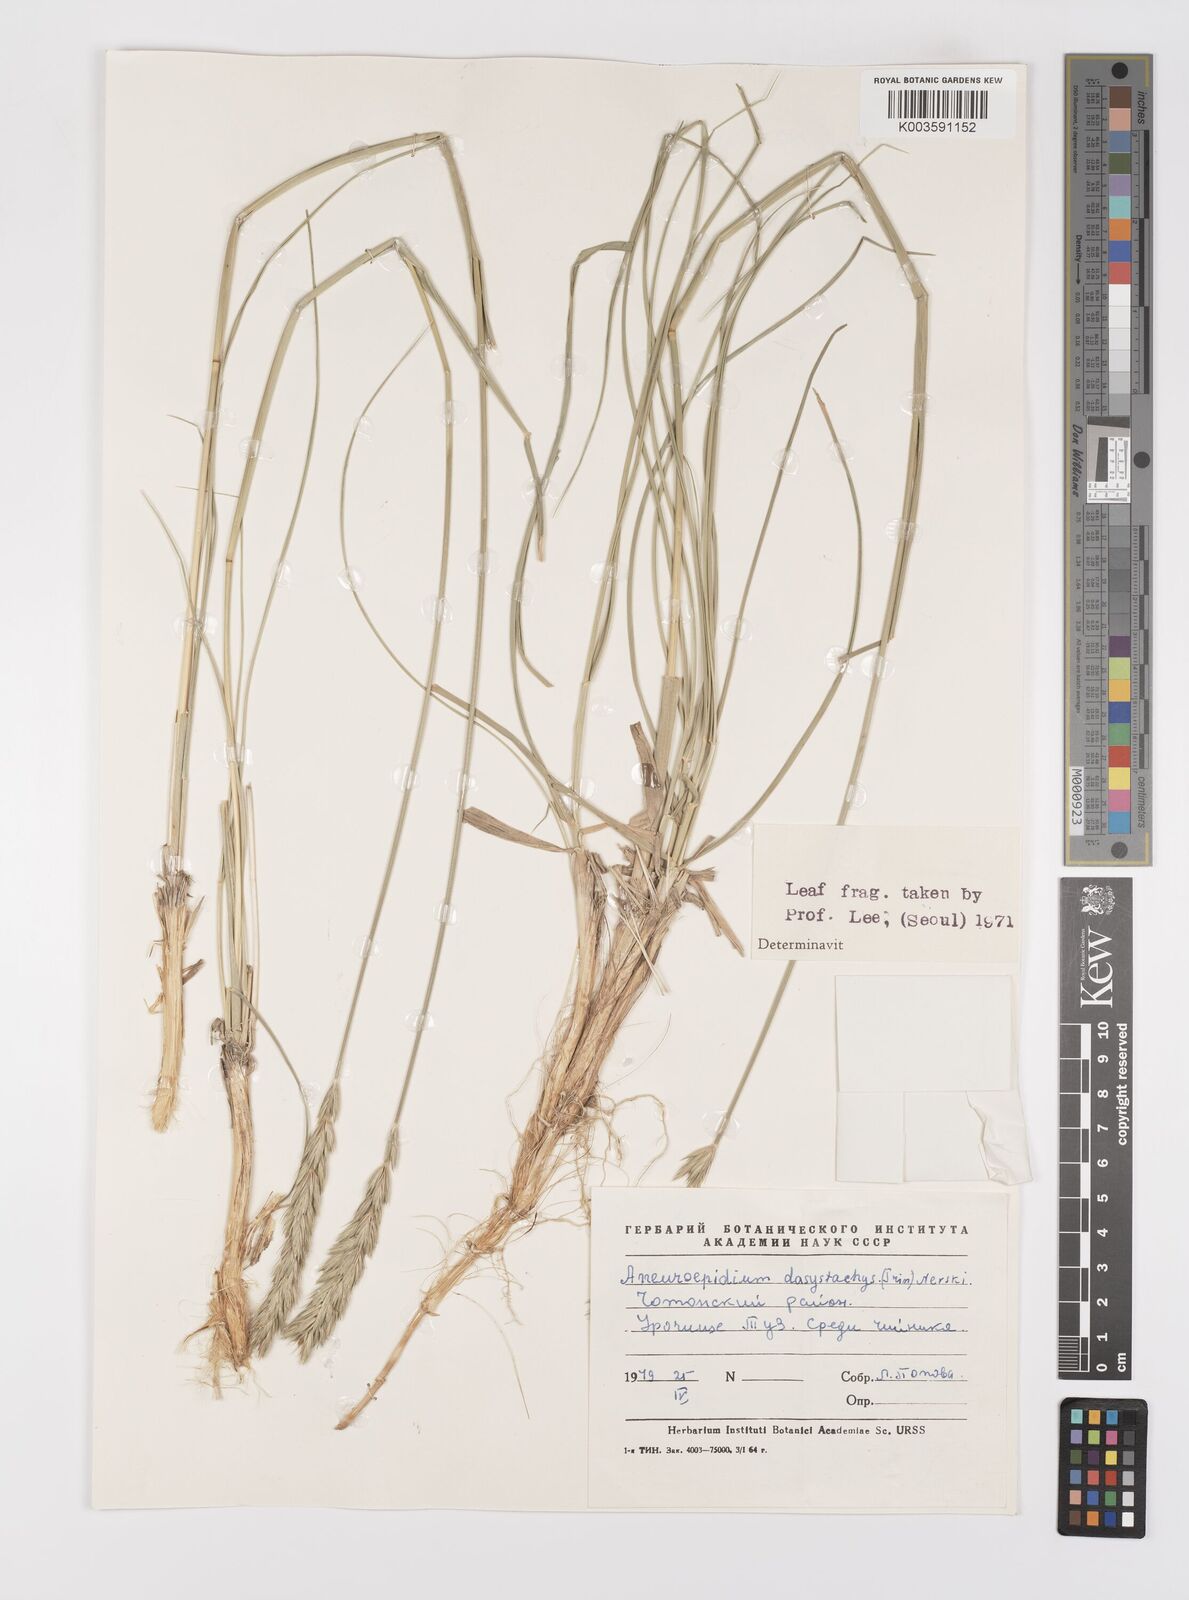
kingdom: Plantae
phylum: Tracheophyta
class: Liliopsida
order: Poales
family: Poaceae
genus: Leymus
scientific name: Leymus secalinus
